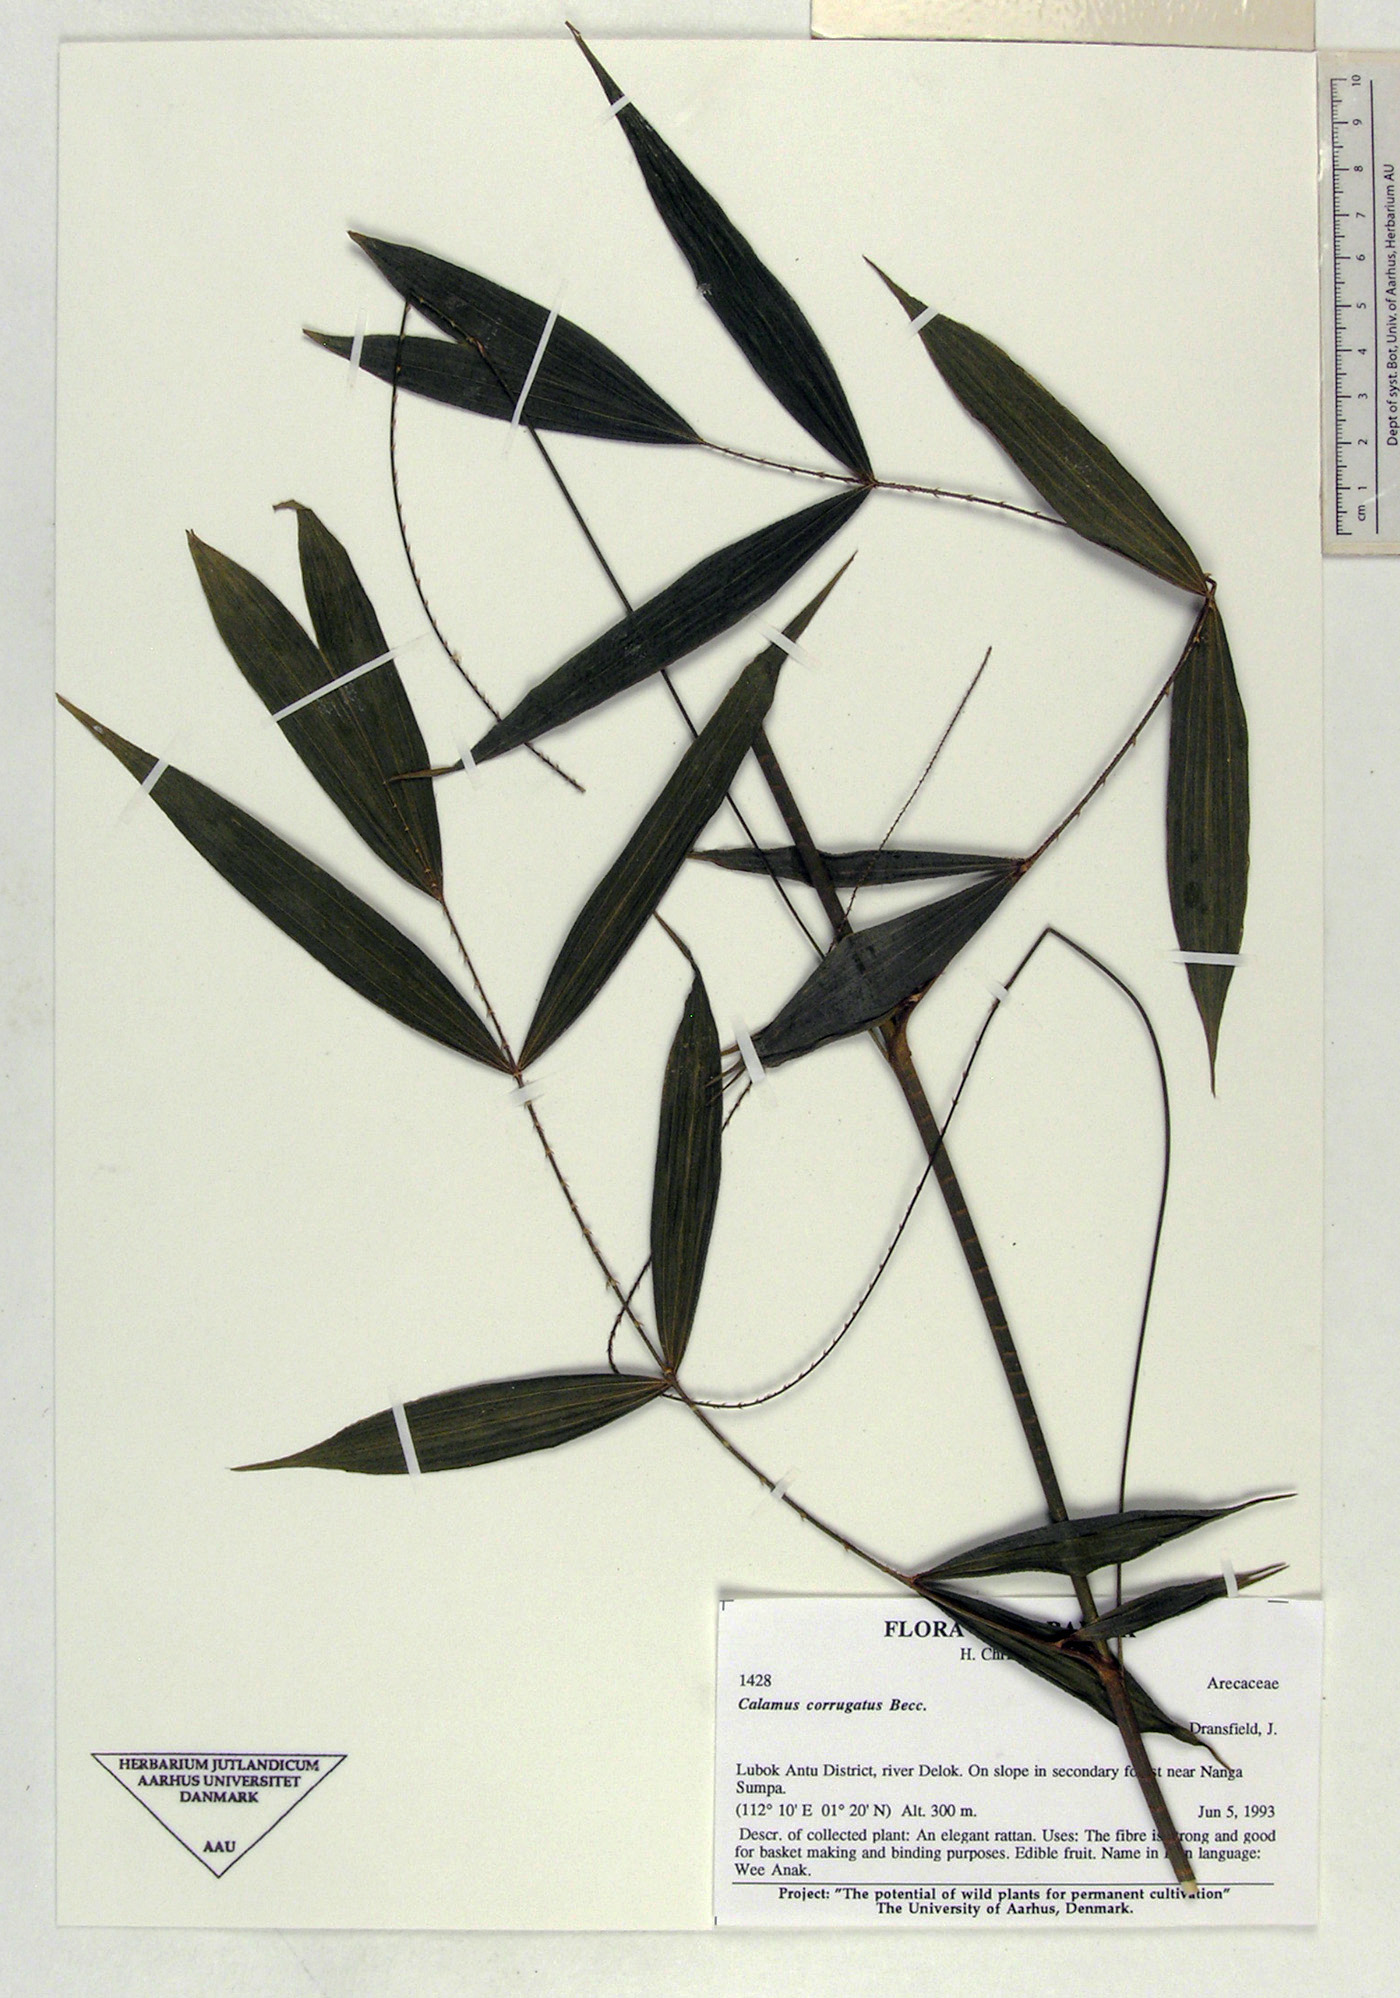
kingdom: Plantae
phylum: Tracheophyta
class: Liliopsida
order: Arecales
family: Arecaceae
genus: Calamus
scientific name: Calamus javensis
